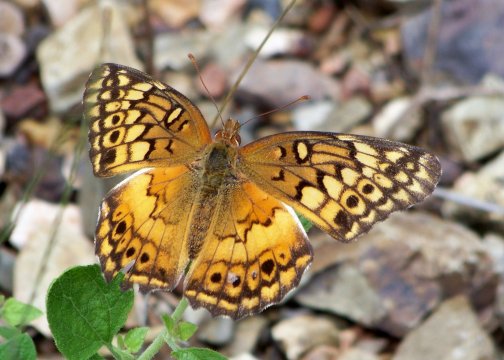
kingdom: Animalia
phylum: Arthropoda
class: Insecta
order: Lepidoptera
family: Nymphalidae
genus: Euptoieta
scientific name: Euptoieta claudia
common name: Variegated Fritillary
